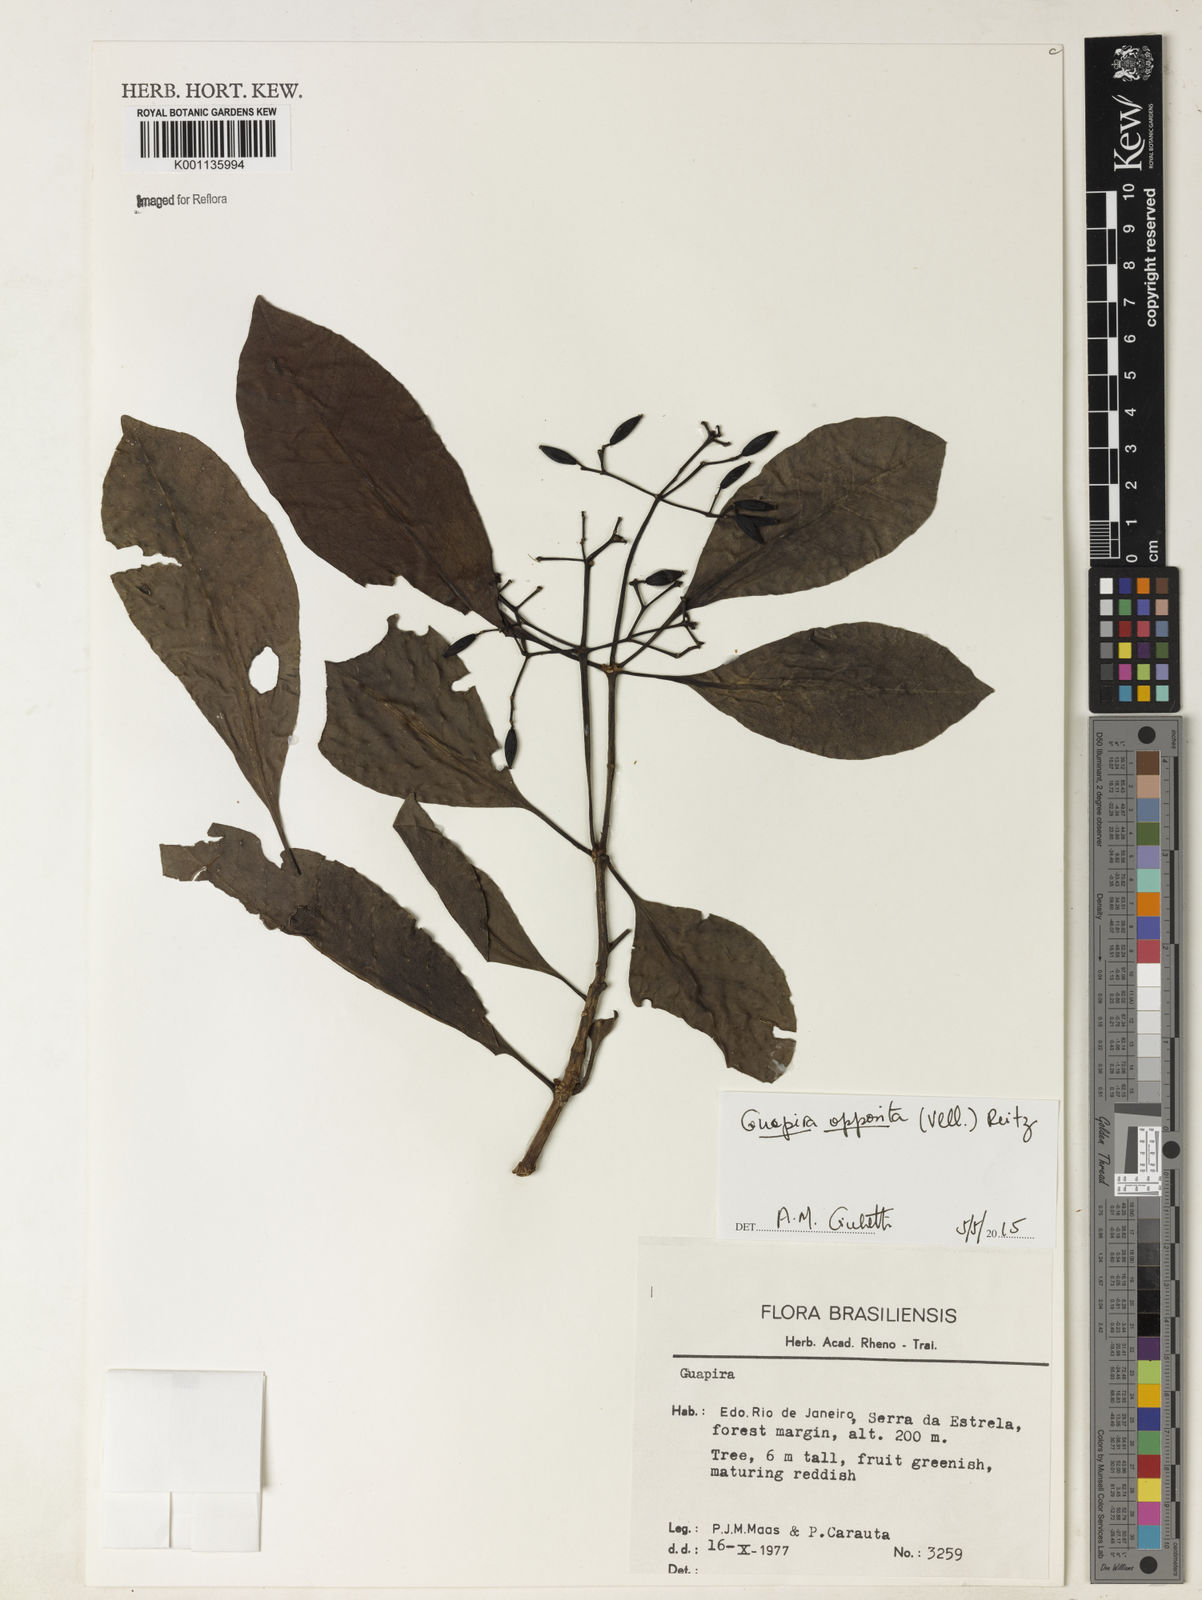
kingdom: Plantae
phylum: Tracheophyta
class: Magnoliopsida
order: Caryophyllales
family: Nyctaginaceae
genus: Guapira
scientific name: Guapira opposita
